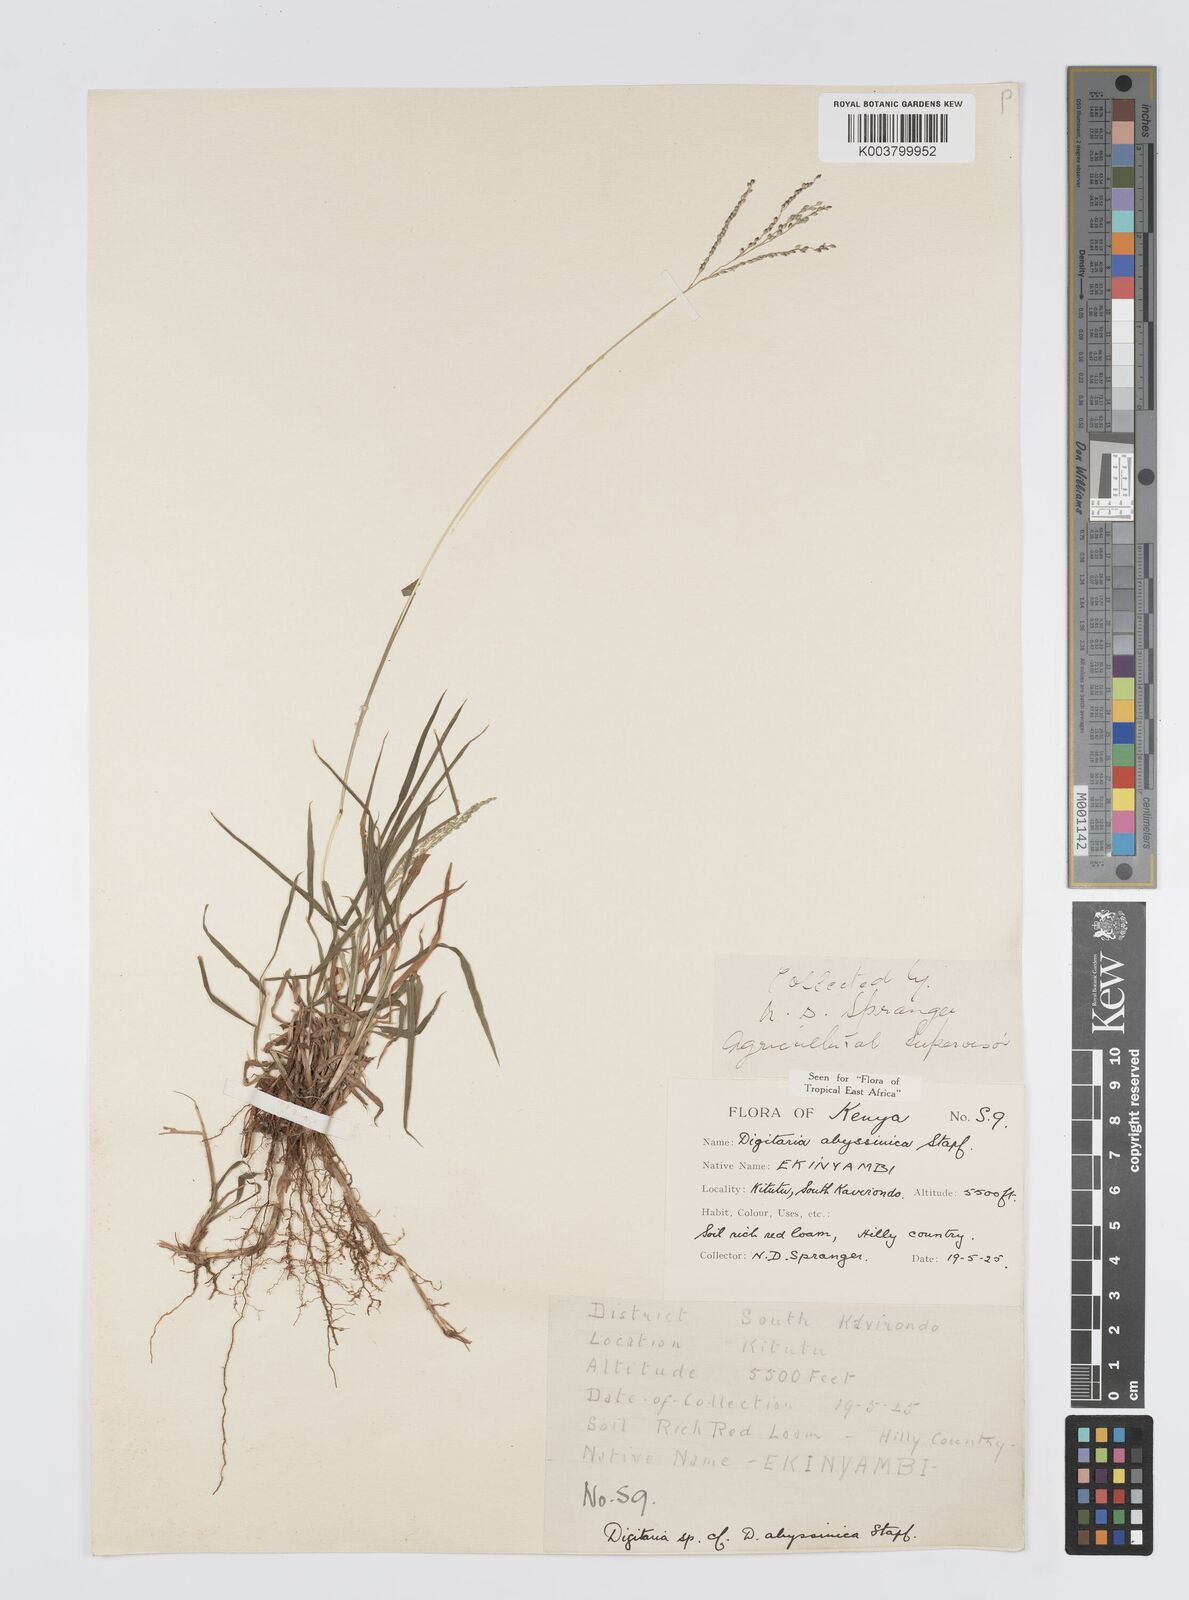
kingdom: Plantae
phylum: Tracheophyta
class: Liliopsida
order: Poales
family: Poaceae
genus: Digitaria
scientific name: Digitaria abyssinica
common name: African couchgrass
